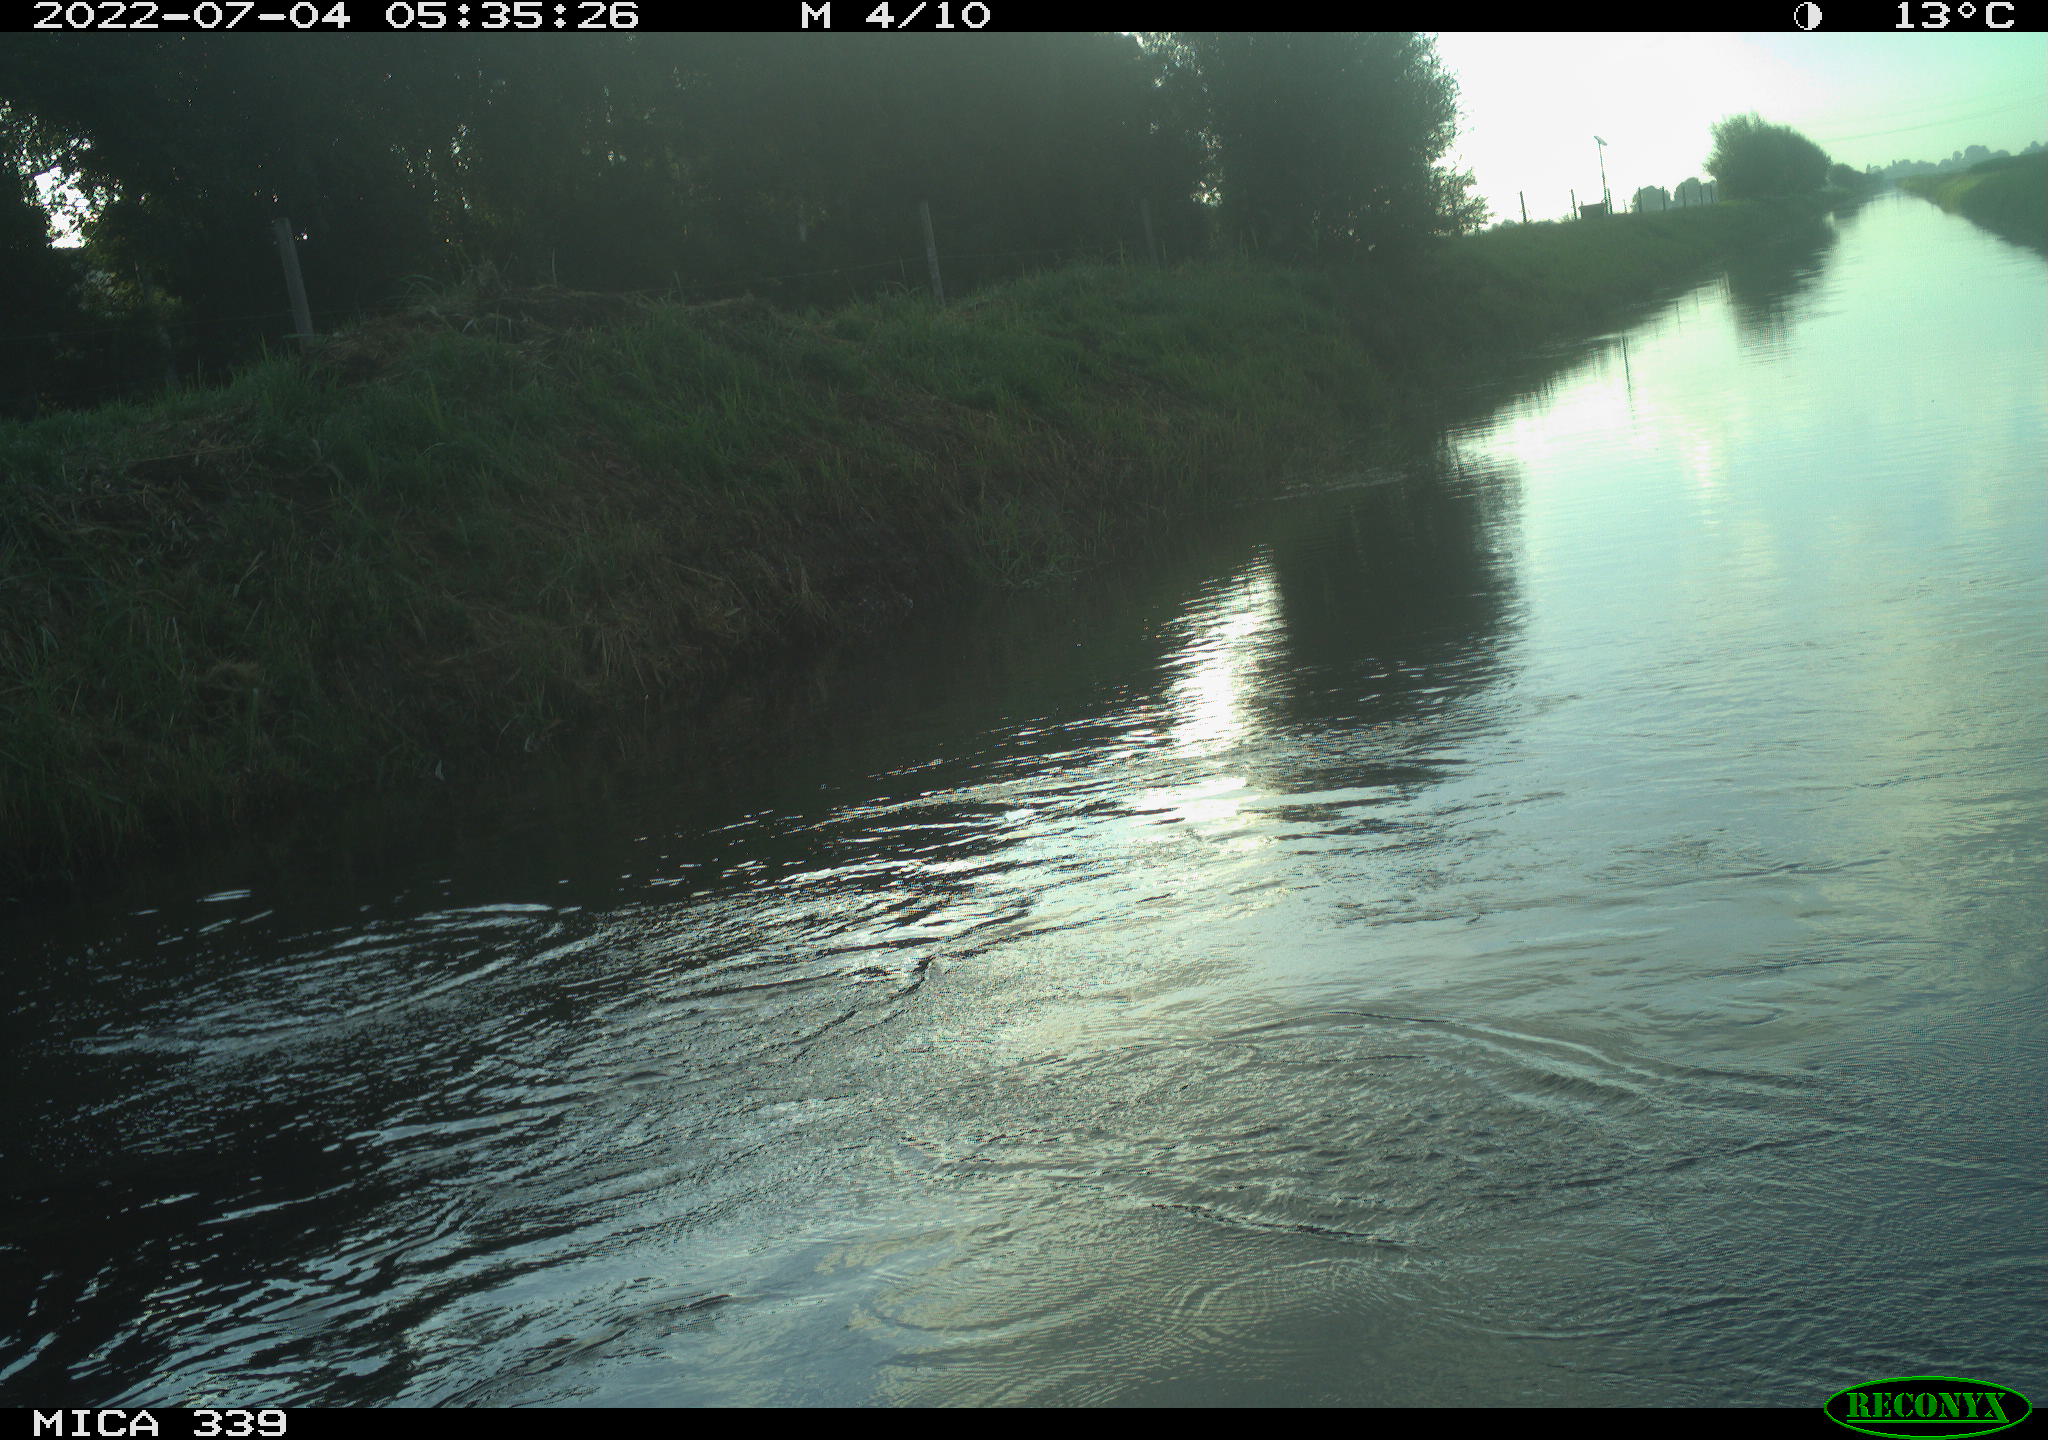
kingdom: Animalia
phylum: Chordata
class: Aves
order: Pelecaniformes
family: Ardeidae
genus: Ardea
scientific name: Ardea
